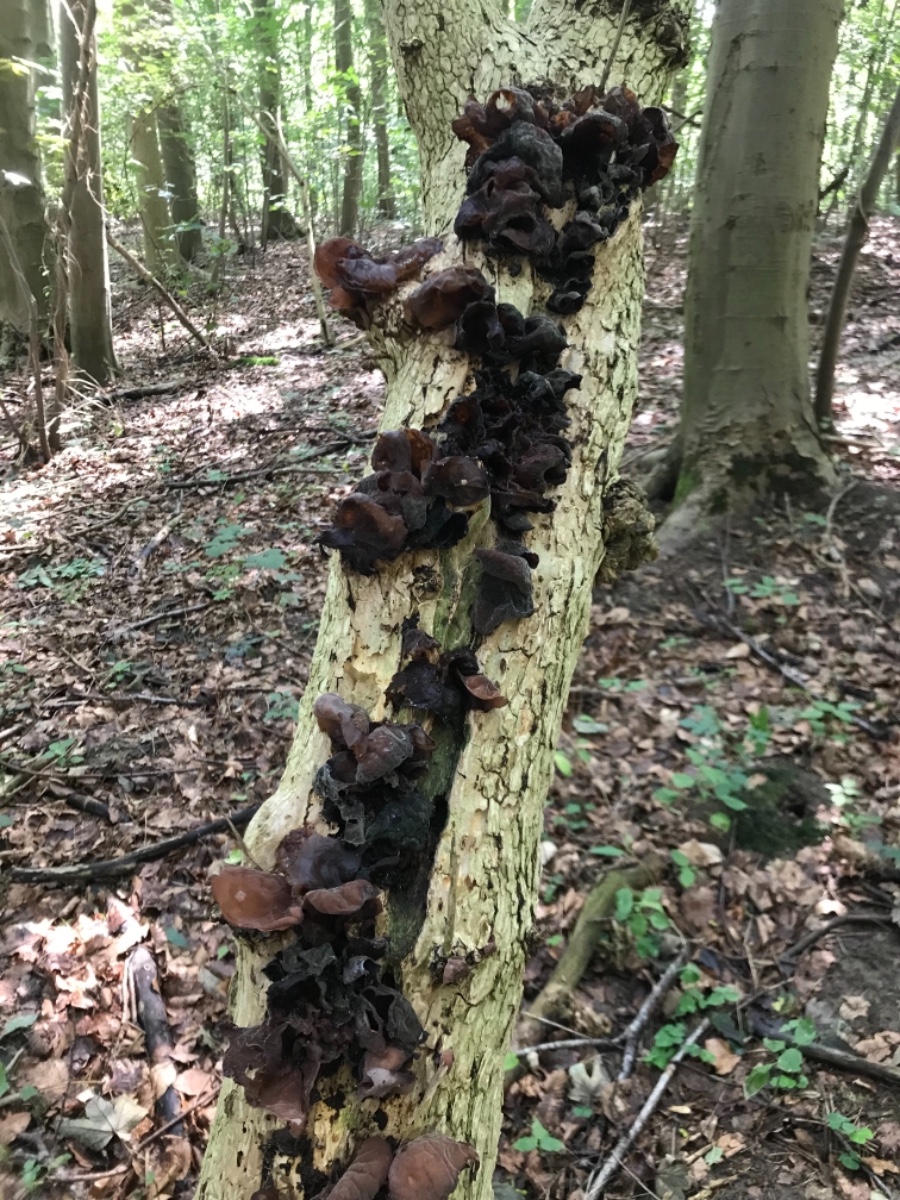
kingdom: Fungi
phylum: Basidiomycota
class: Agaricomycetes
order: Auriculariales
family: Auriculariaceae
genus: Auricularia
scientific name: Auricularia auricula-judae
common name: almindelig judasøre
